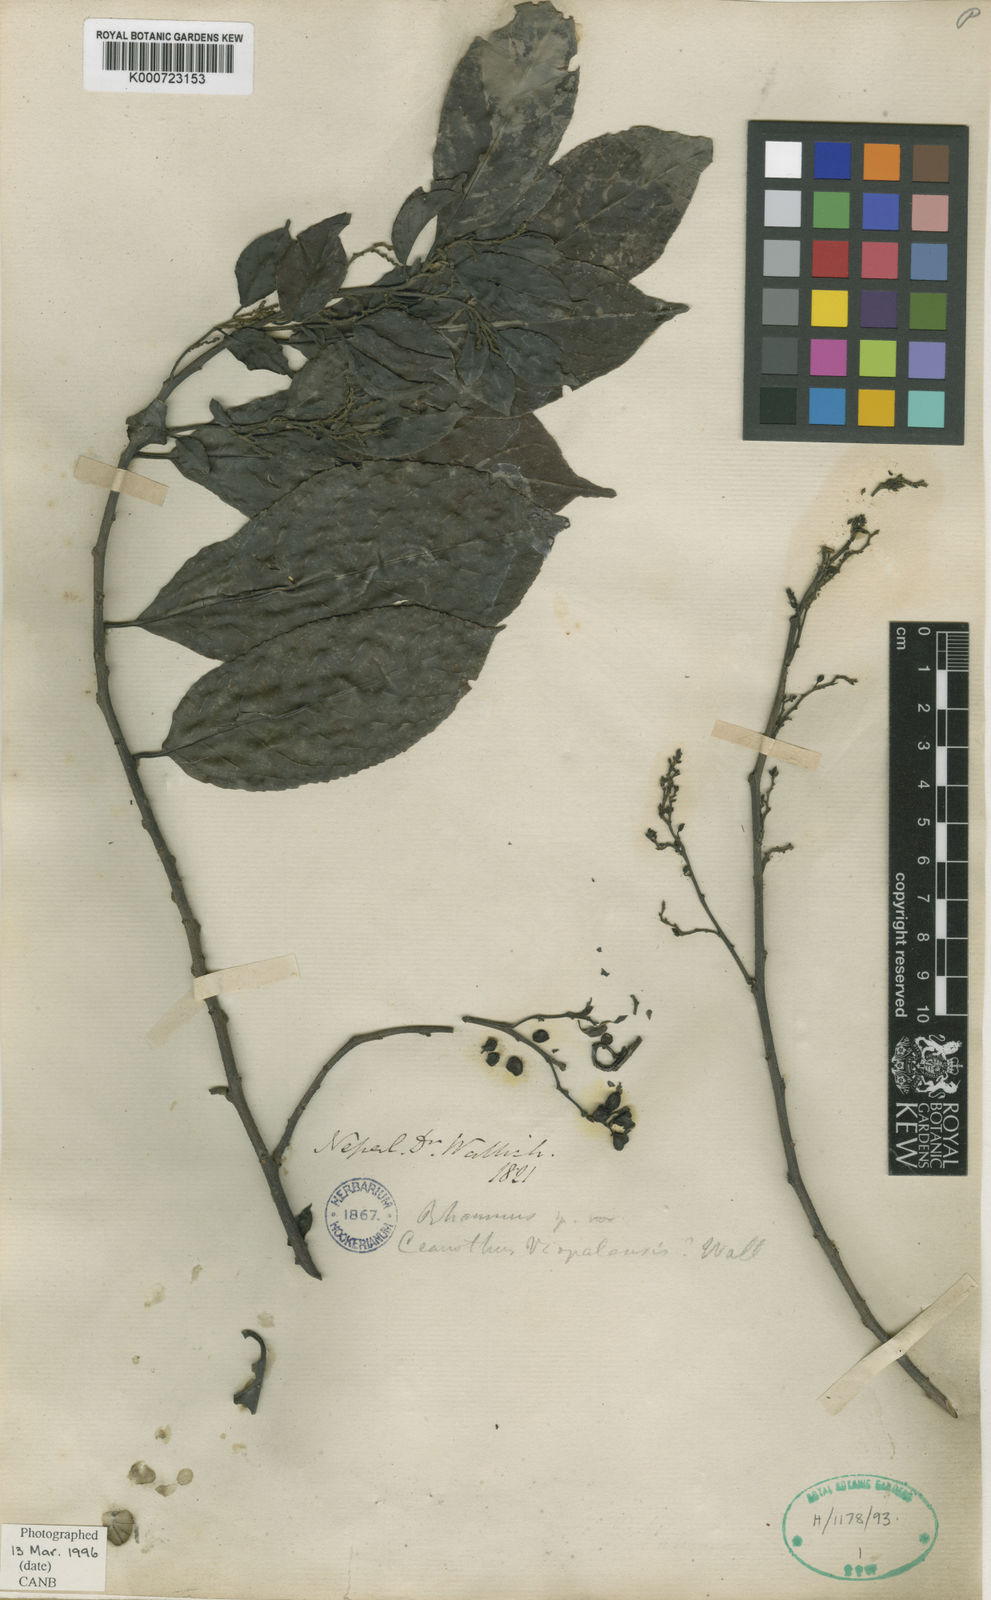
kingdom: Plantae
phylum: Tracheophyta
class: Magnoliopsida
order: Rosales
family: Rhamnaceae
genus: Rhamnus
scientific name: Rhamnus napalensis
